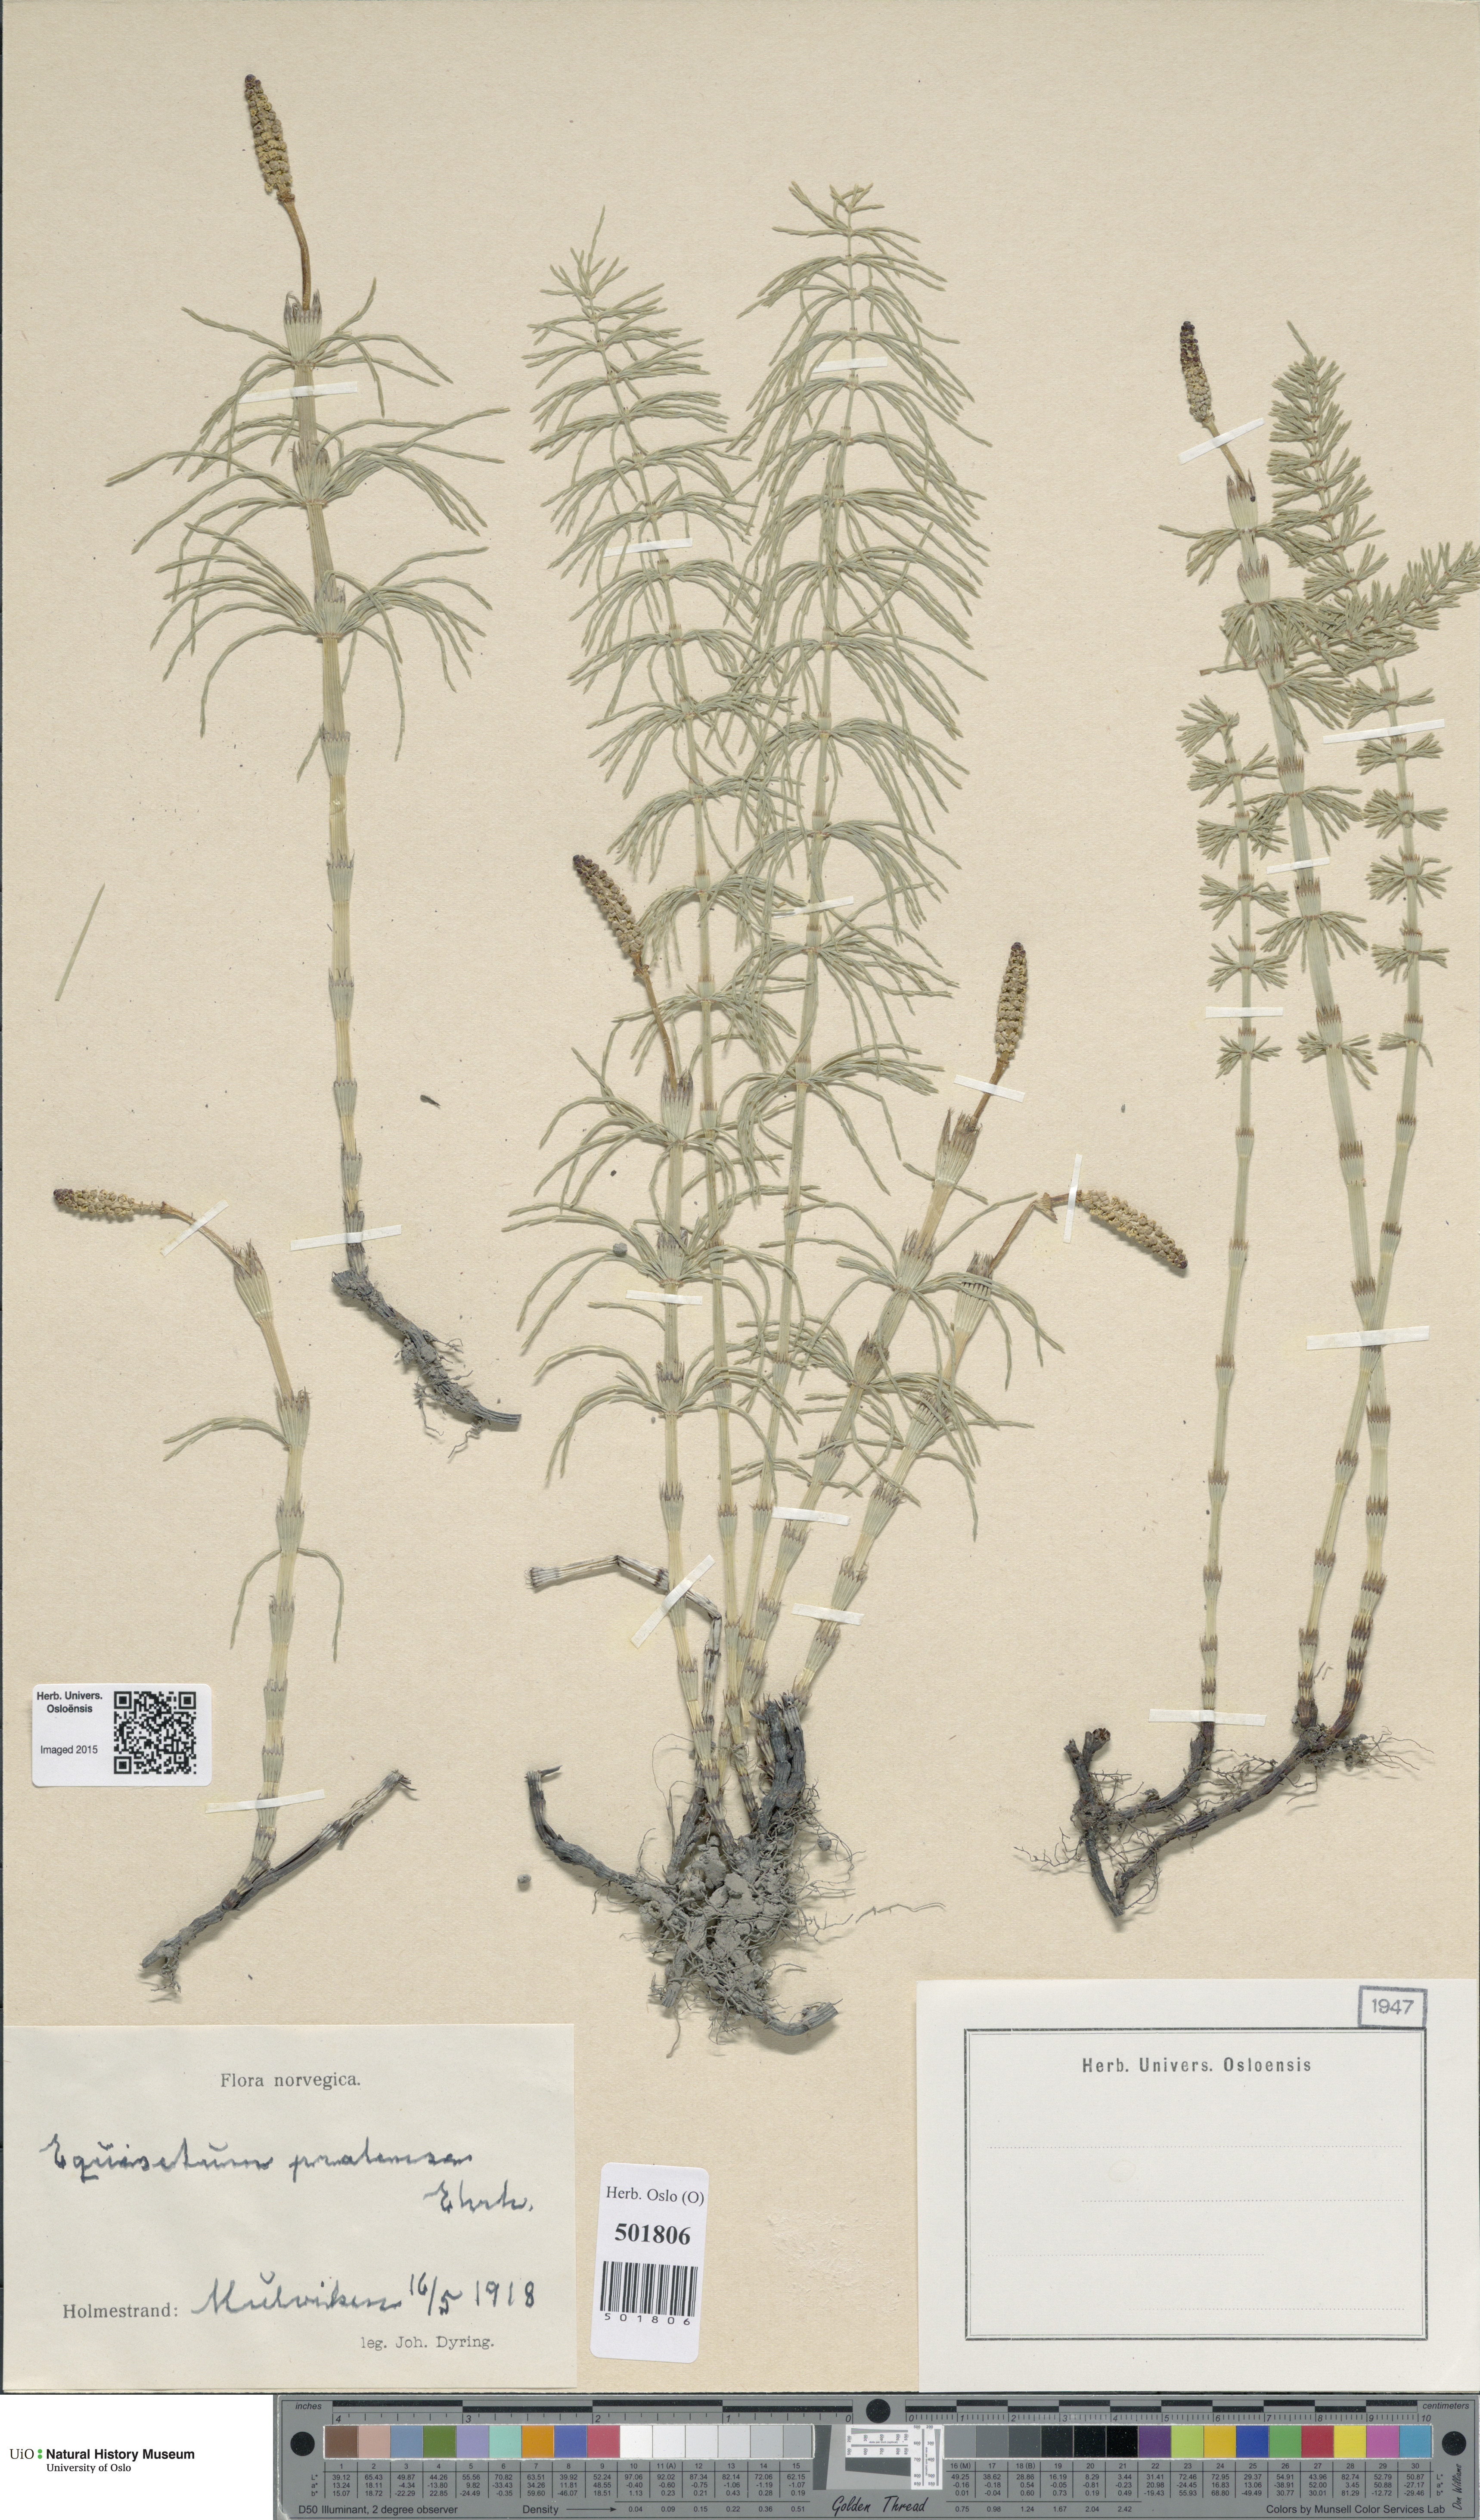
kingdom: Plantae
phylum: Tracheophyta
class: Polypodiopsida
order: Equisetales
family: Equisetaceae
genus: Equisetum
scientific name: Equisetum pratense
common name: Meadow horsetail
